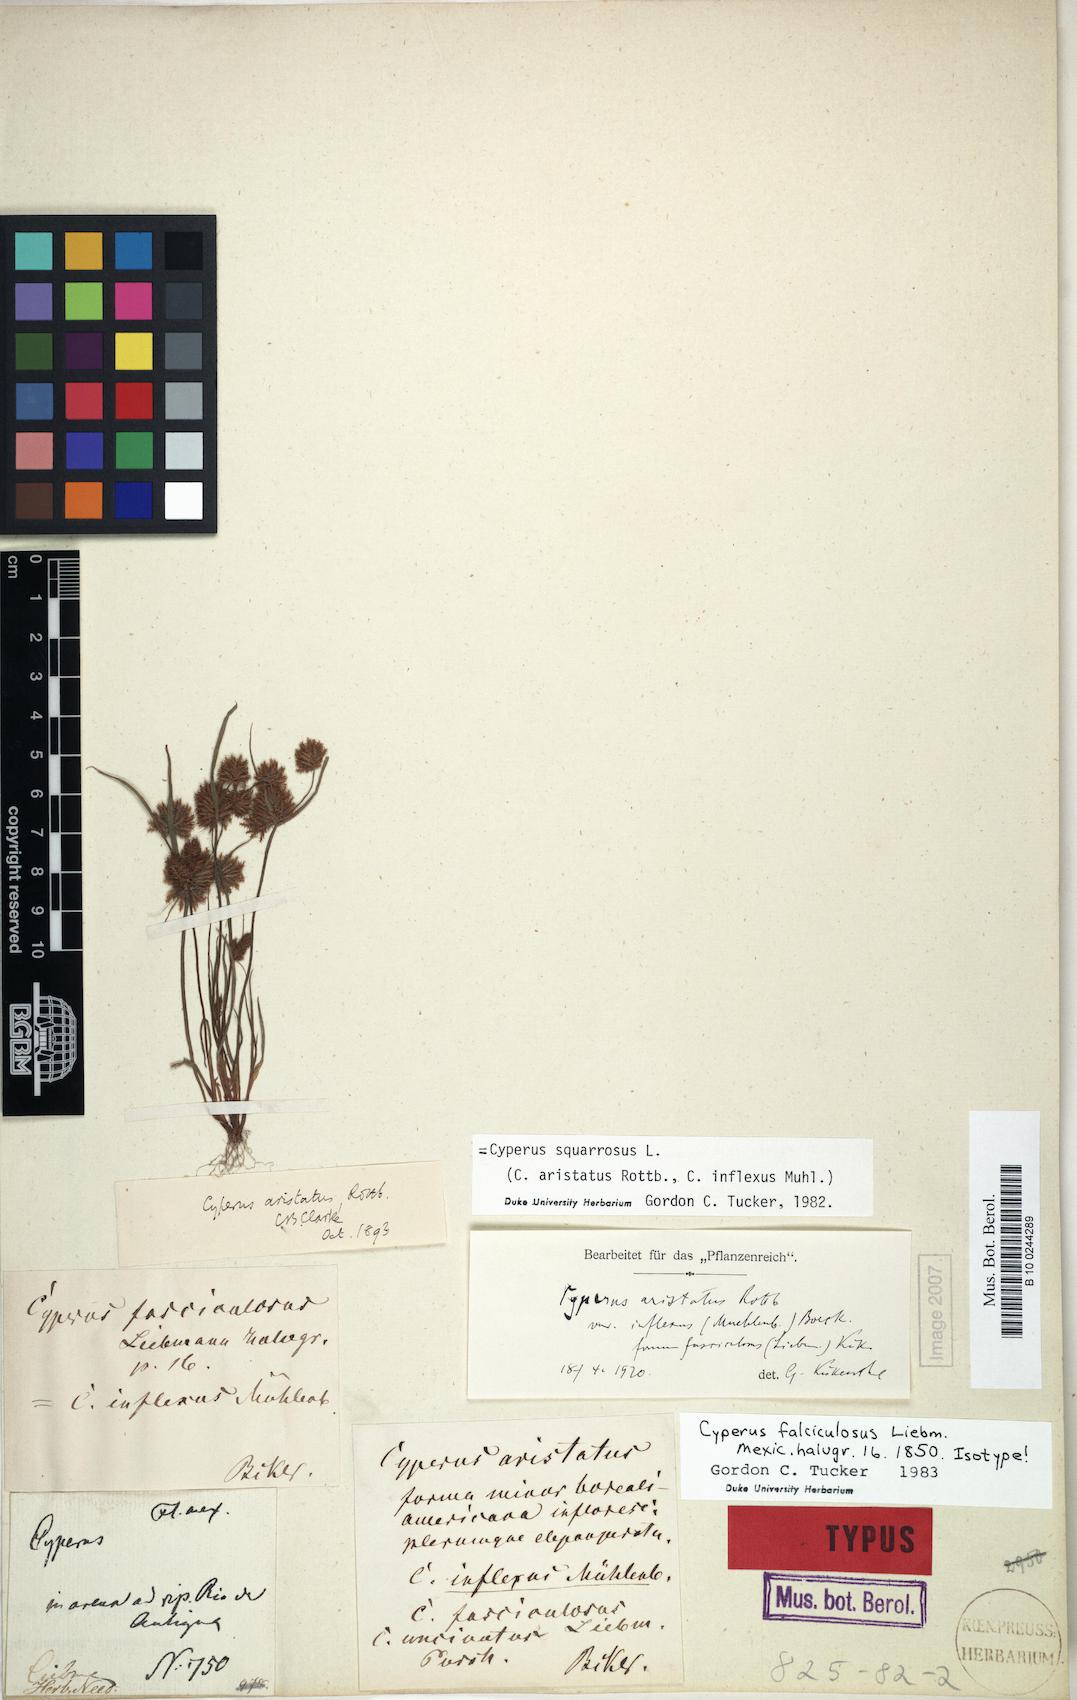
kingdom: Plantae
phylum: Tracheophyta
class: Liliopsida
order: Poales
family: Cyperaceae
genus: Cyperus
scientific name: Cyperus squarrosus
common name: Awned cyperus
